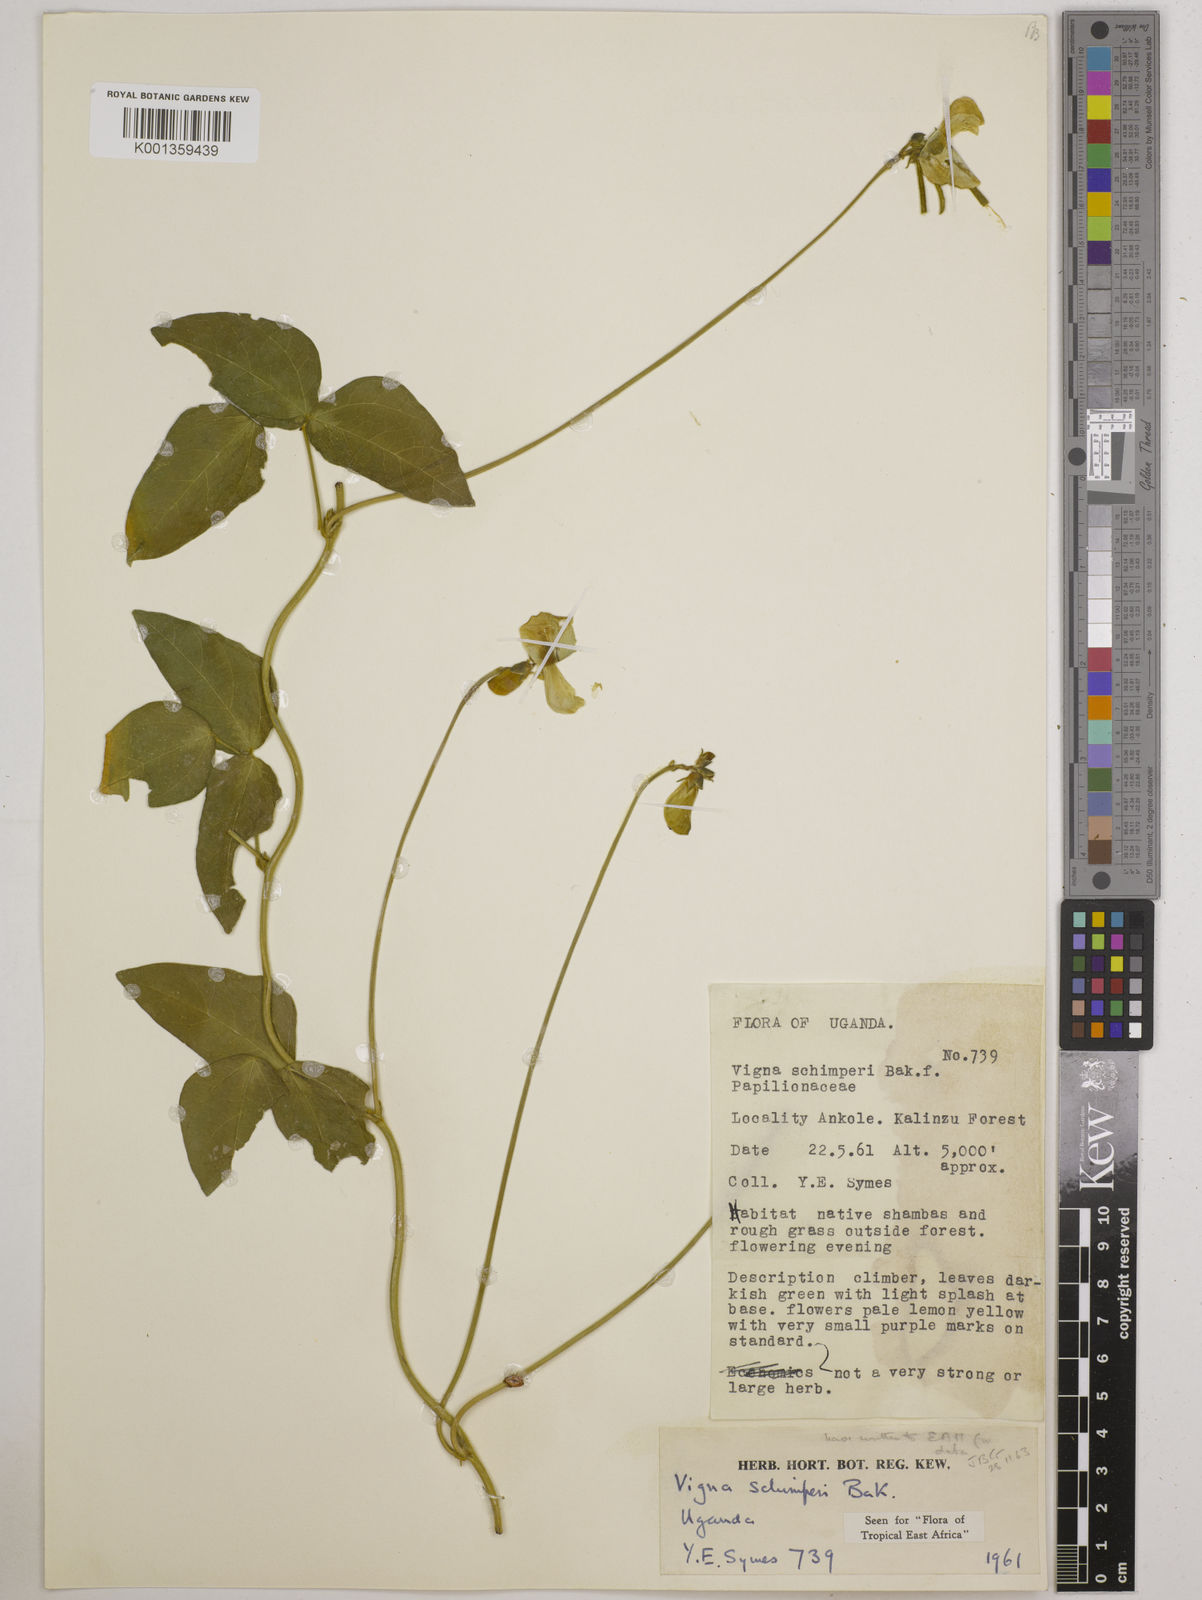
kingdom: Plantae
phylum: Tracheophyta
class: Magnoliopsida
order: Fabales
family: Fabaceae
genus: Vigna
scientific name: Vigna schimperi
